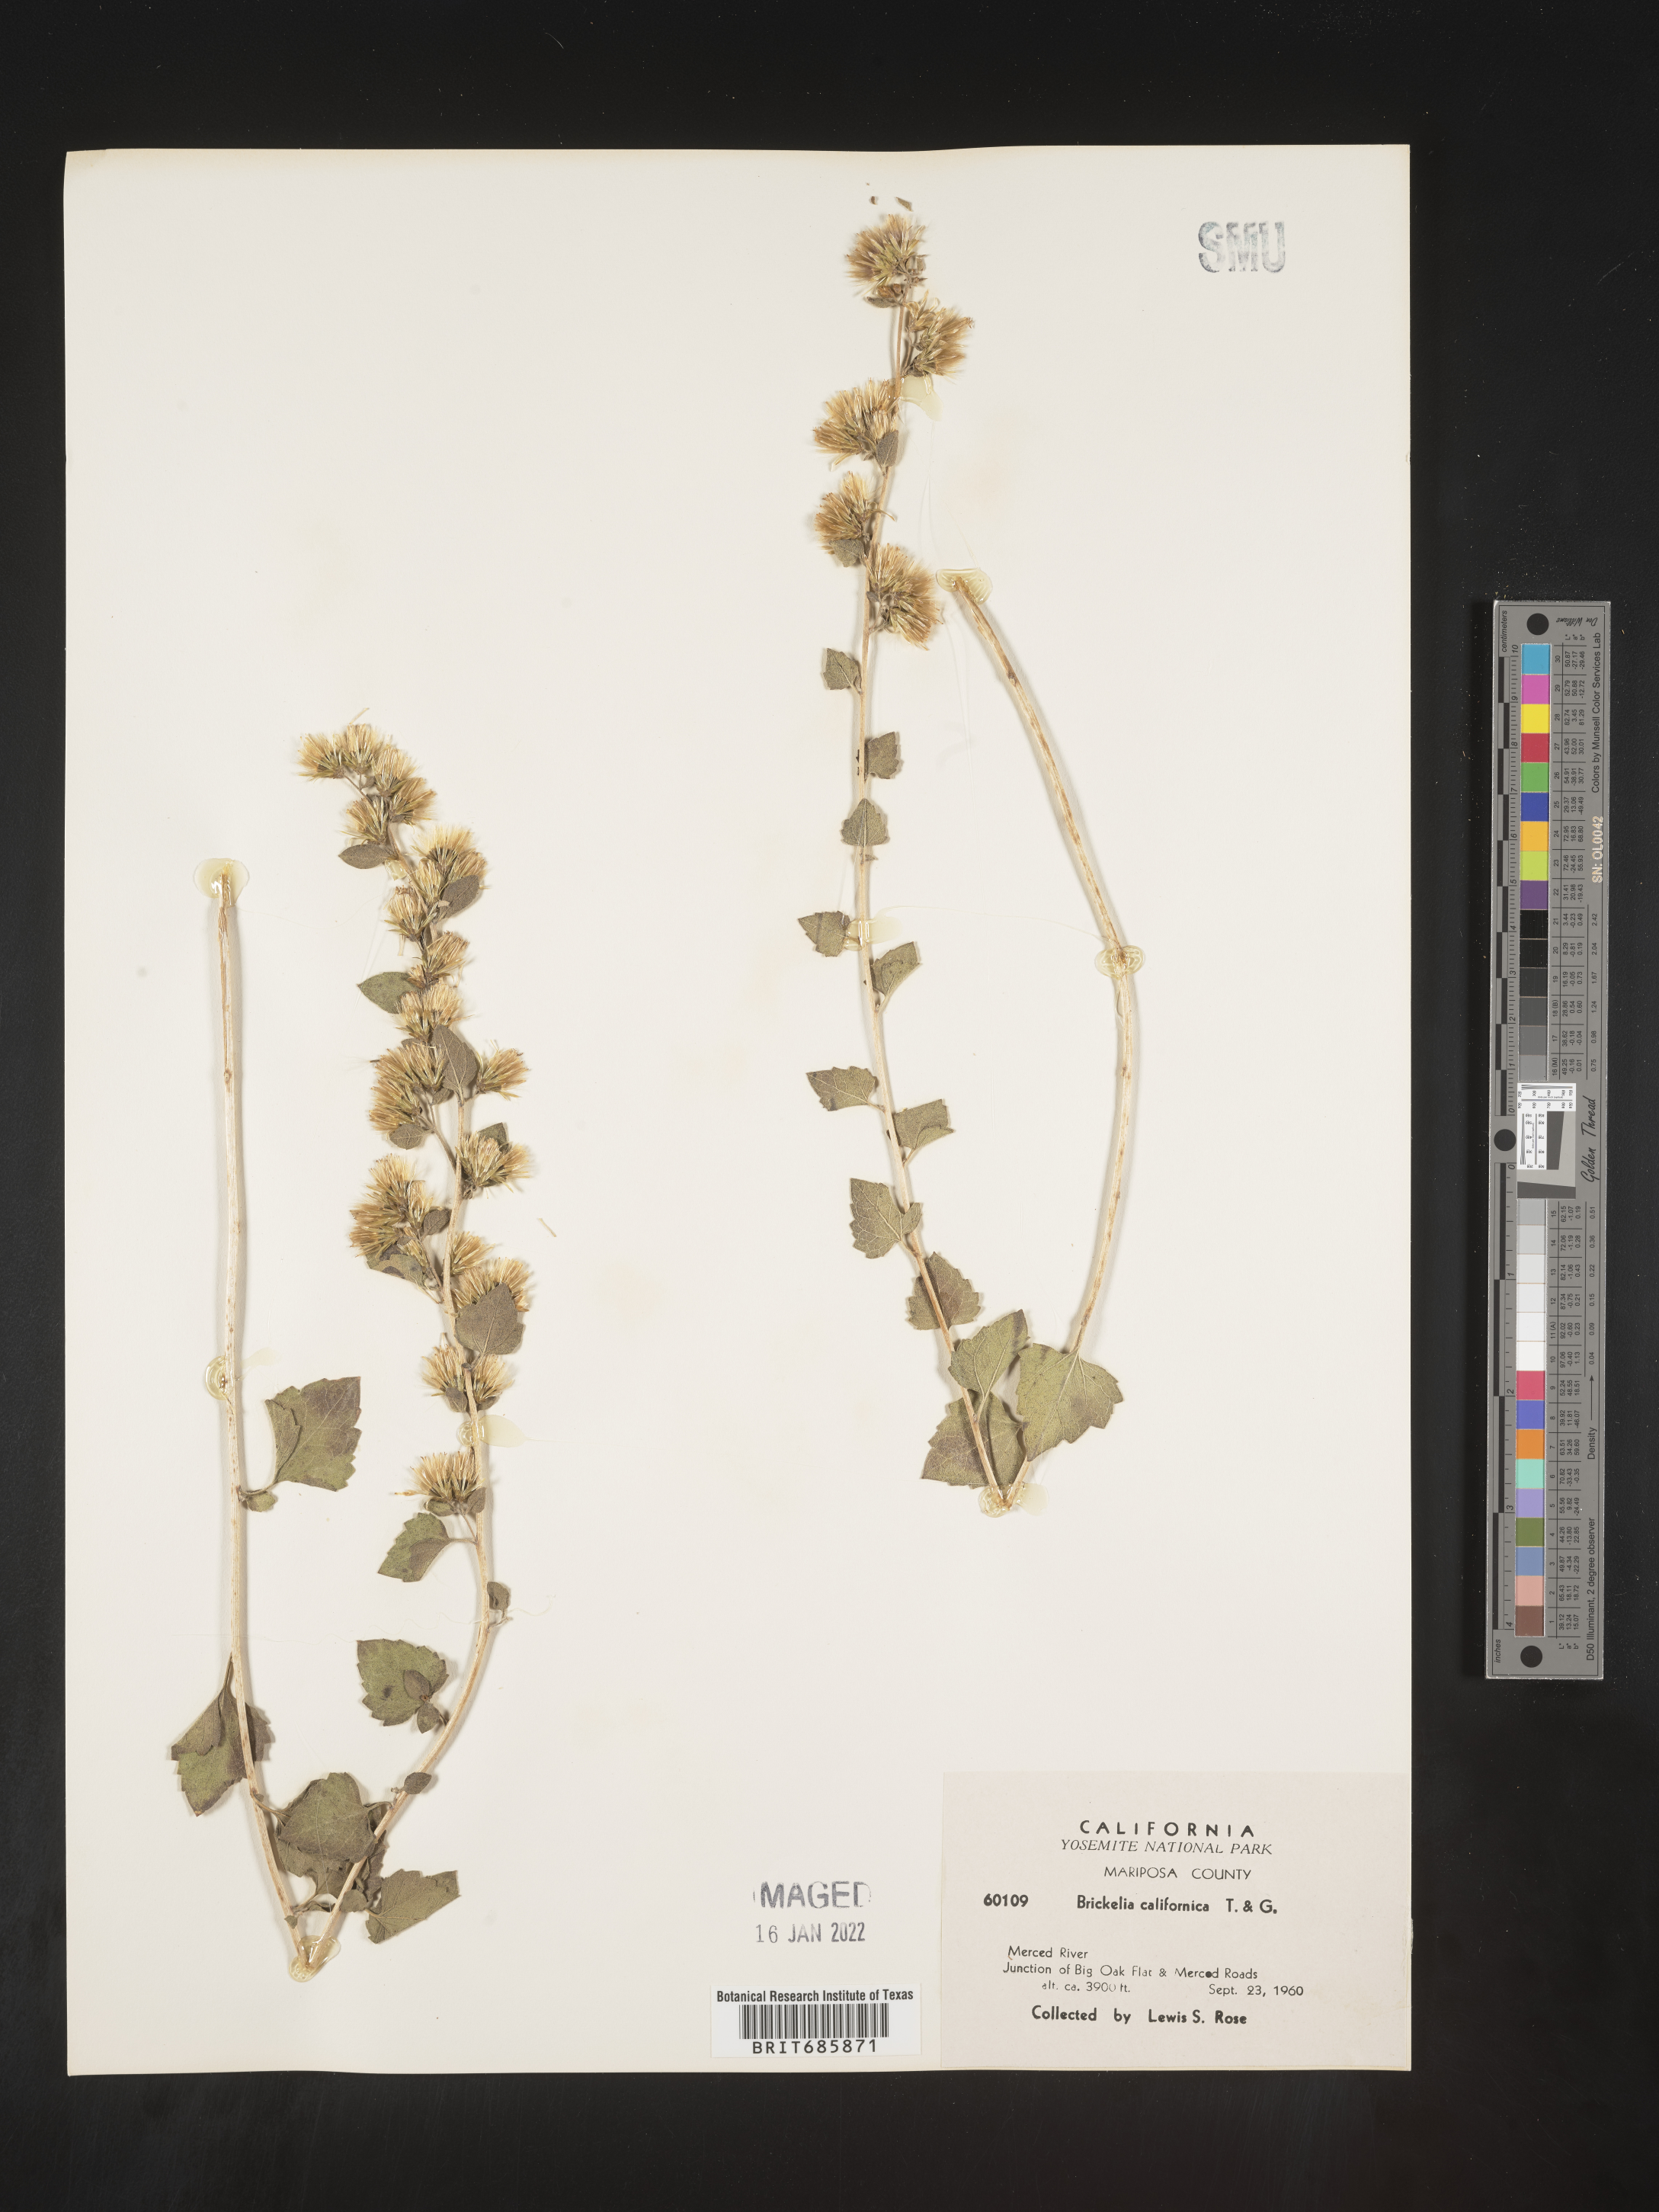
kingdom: Plantae
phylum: Tracheophyta
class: Magnoliopsida
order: Asterales
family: Asteraceae
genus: Brickellia
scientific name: Brickellia californica
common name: California brickellbush
